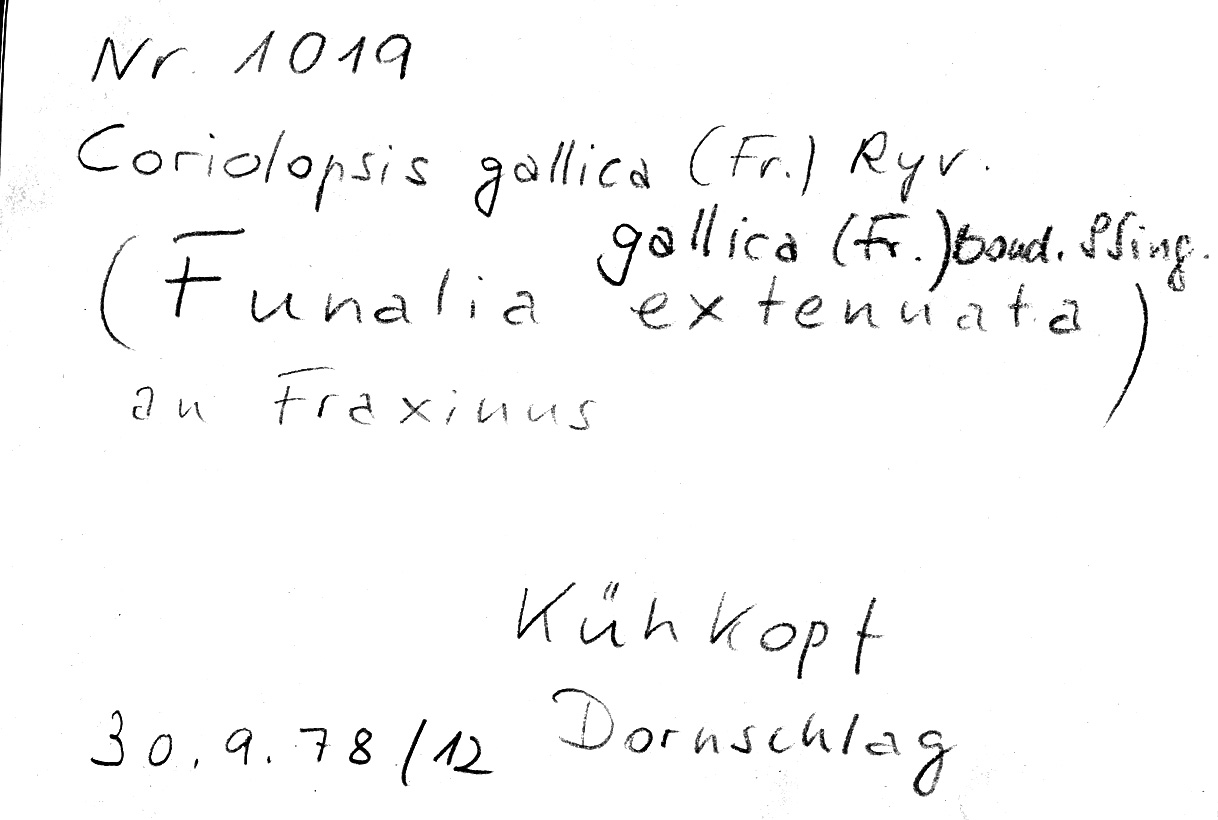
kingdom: Fungi
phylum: Basidiomycota
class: Agaricomycetes
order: Polyporales
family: Polyporaceae
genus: Coriolopsis
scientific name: Coriolopsis gallica
